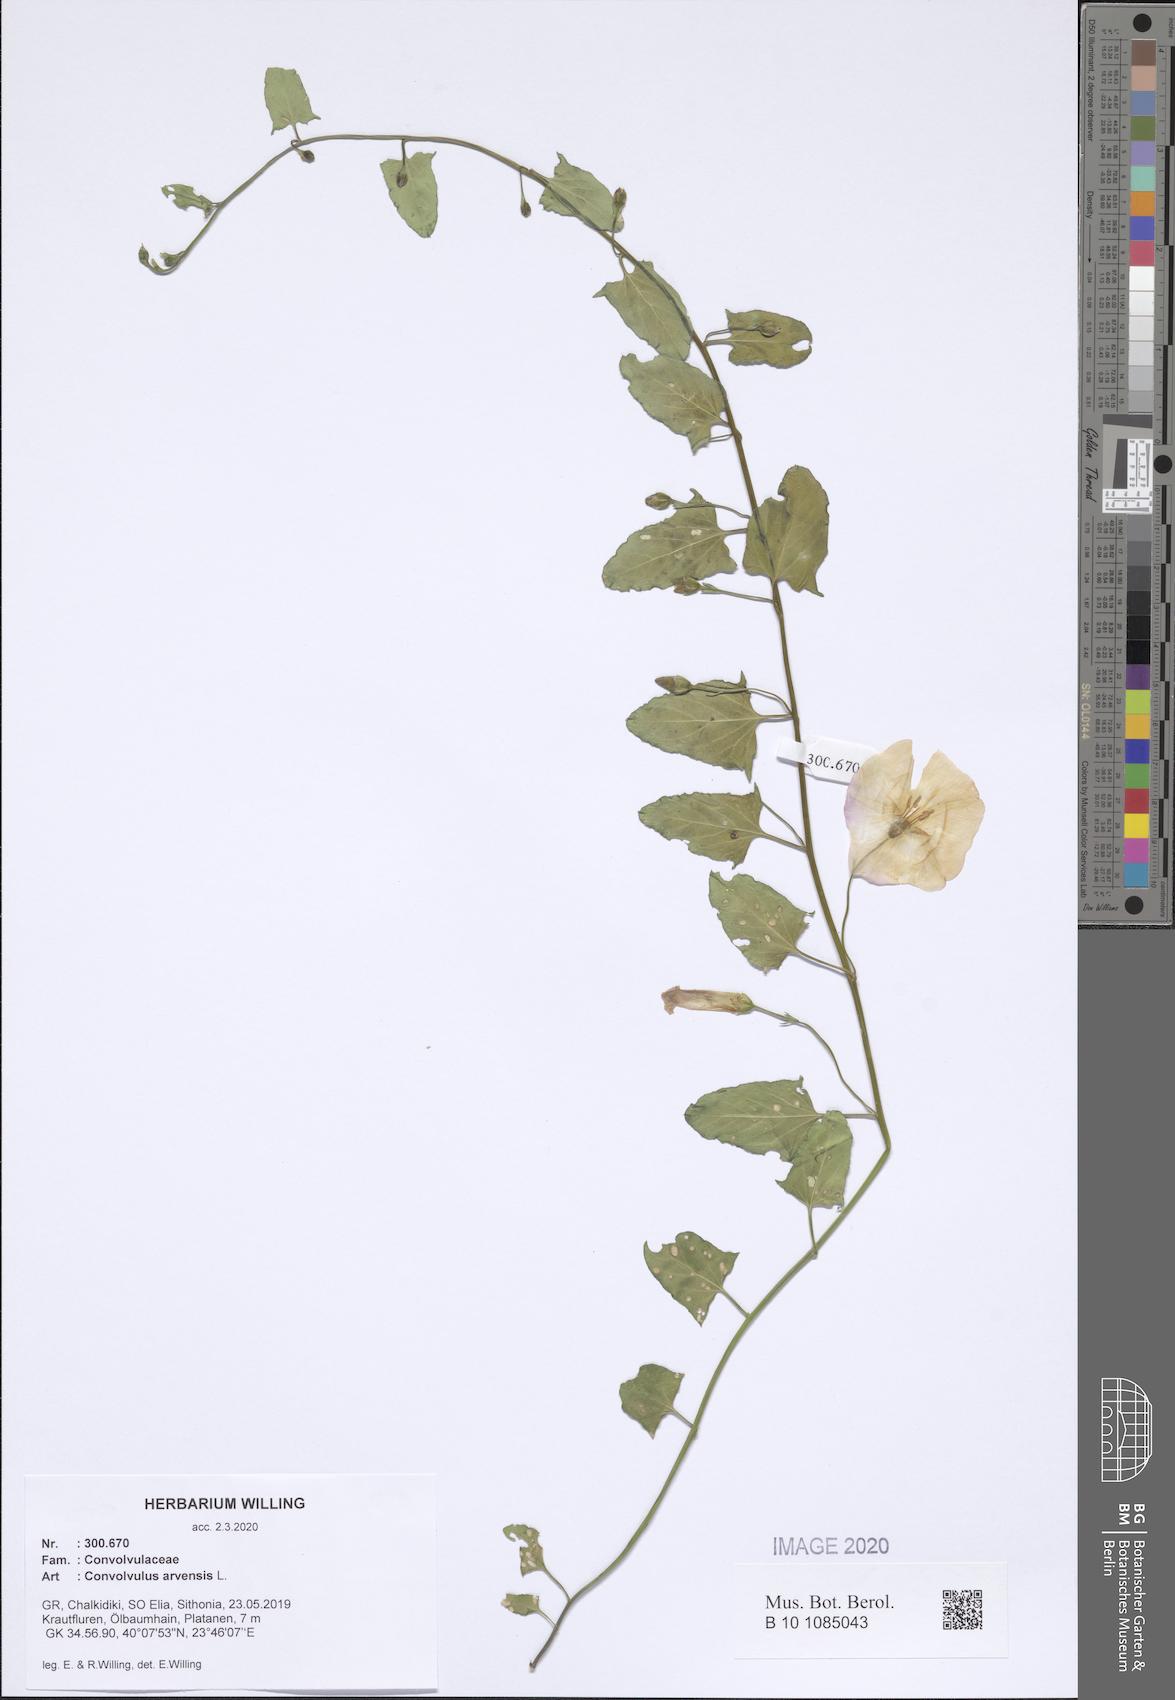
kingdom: Plantae
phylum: Tracheophyta
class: Magnoliopsida
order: Solanales
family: Convolvulaceae
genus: Convolvulus
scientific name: Convolvulus arvensis
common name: Field bindweed
